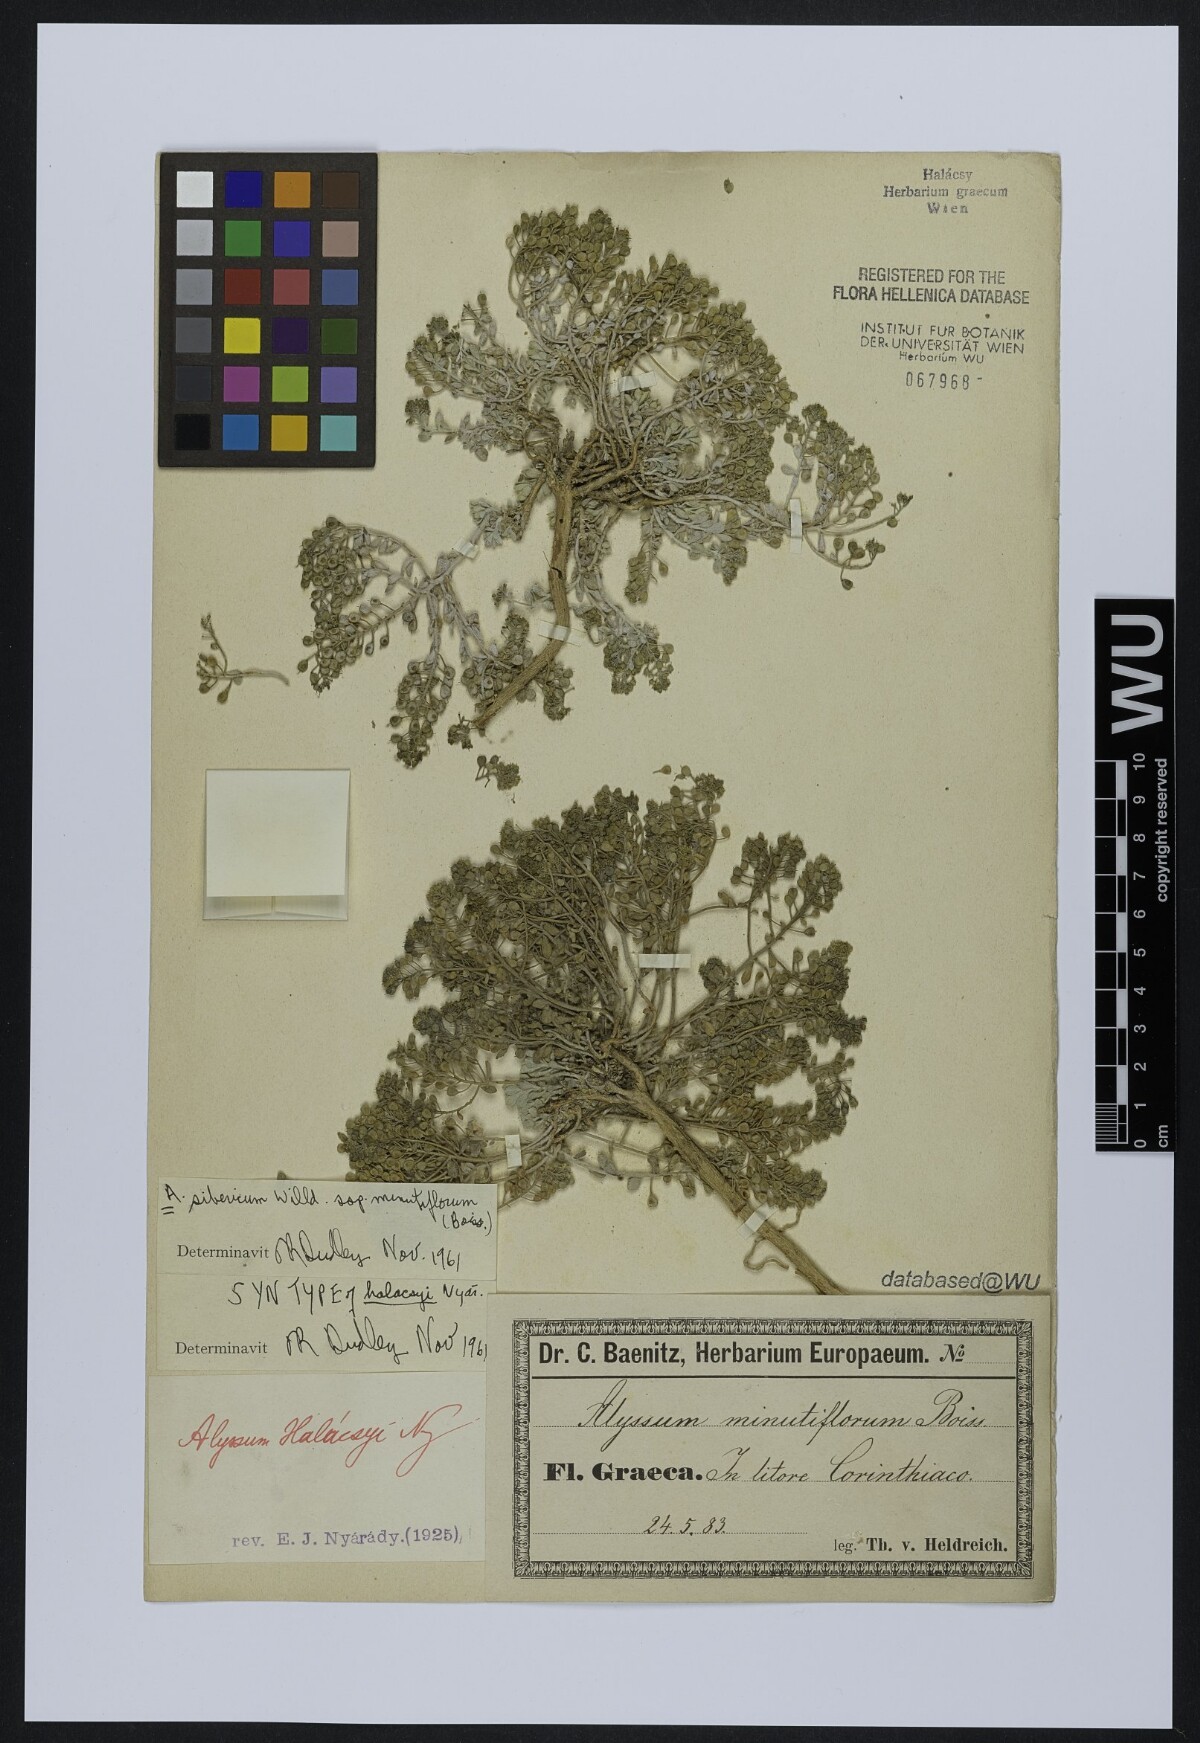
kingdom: Plantae
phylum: Tracheophyta
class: Magnoliopsida
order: Brassicales
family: Brassicaceae
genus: Odontarrhena
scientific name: Odontarrhena sibirica
